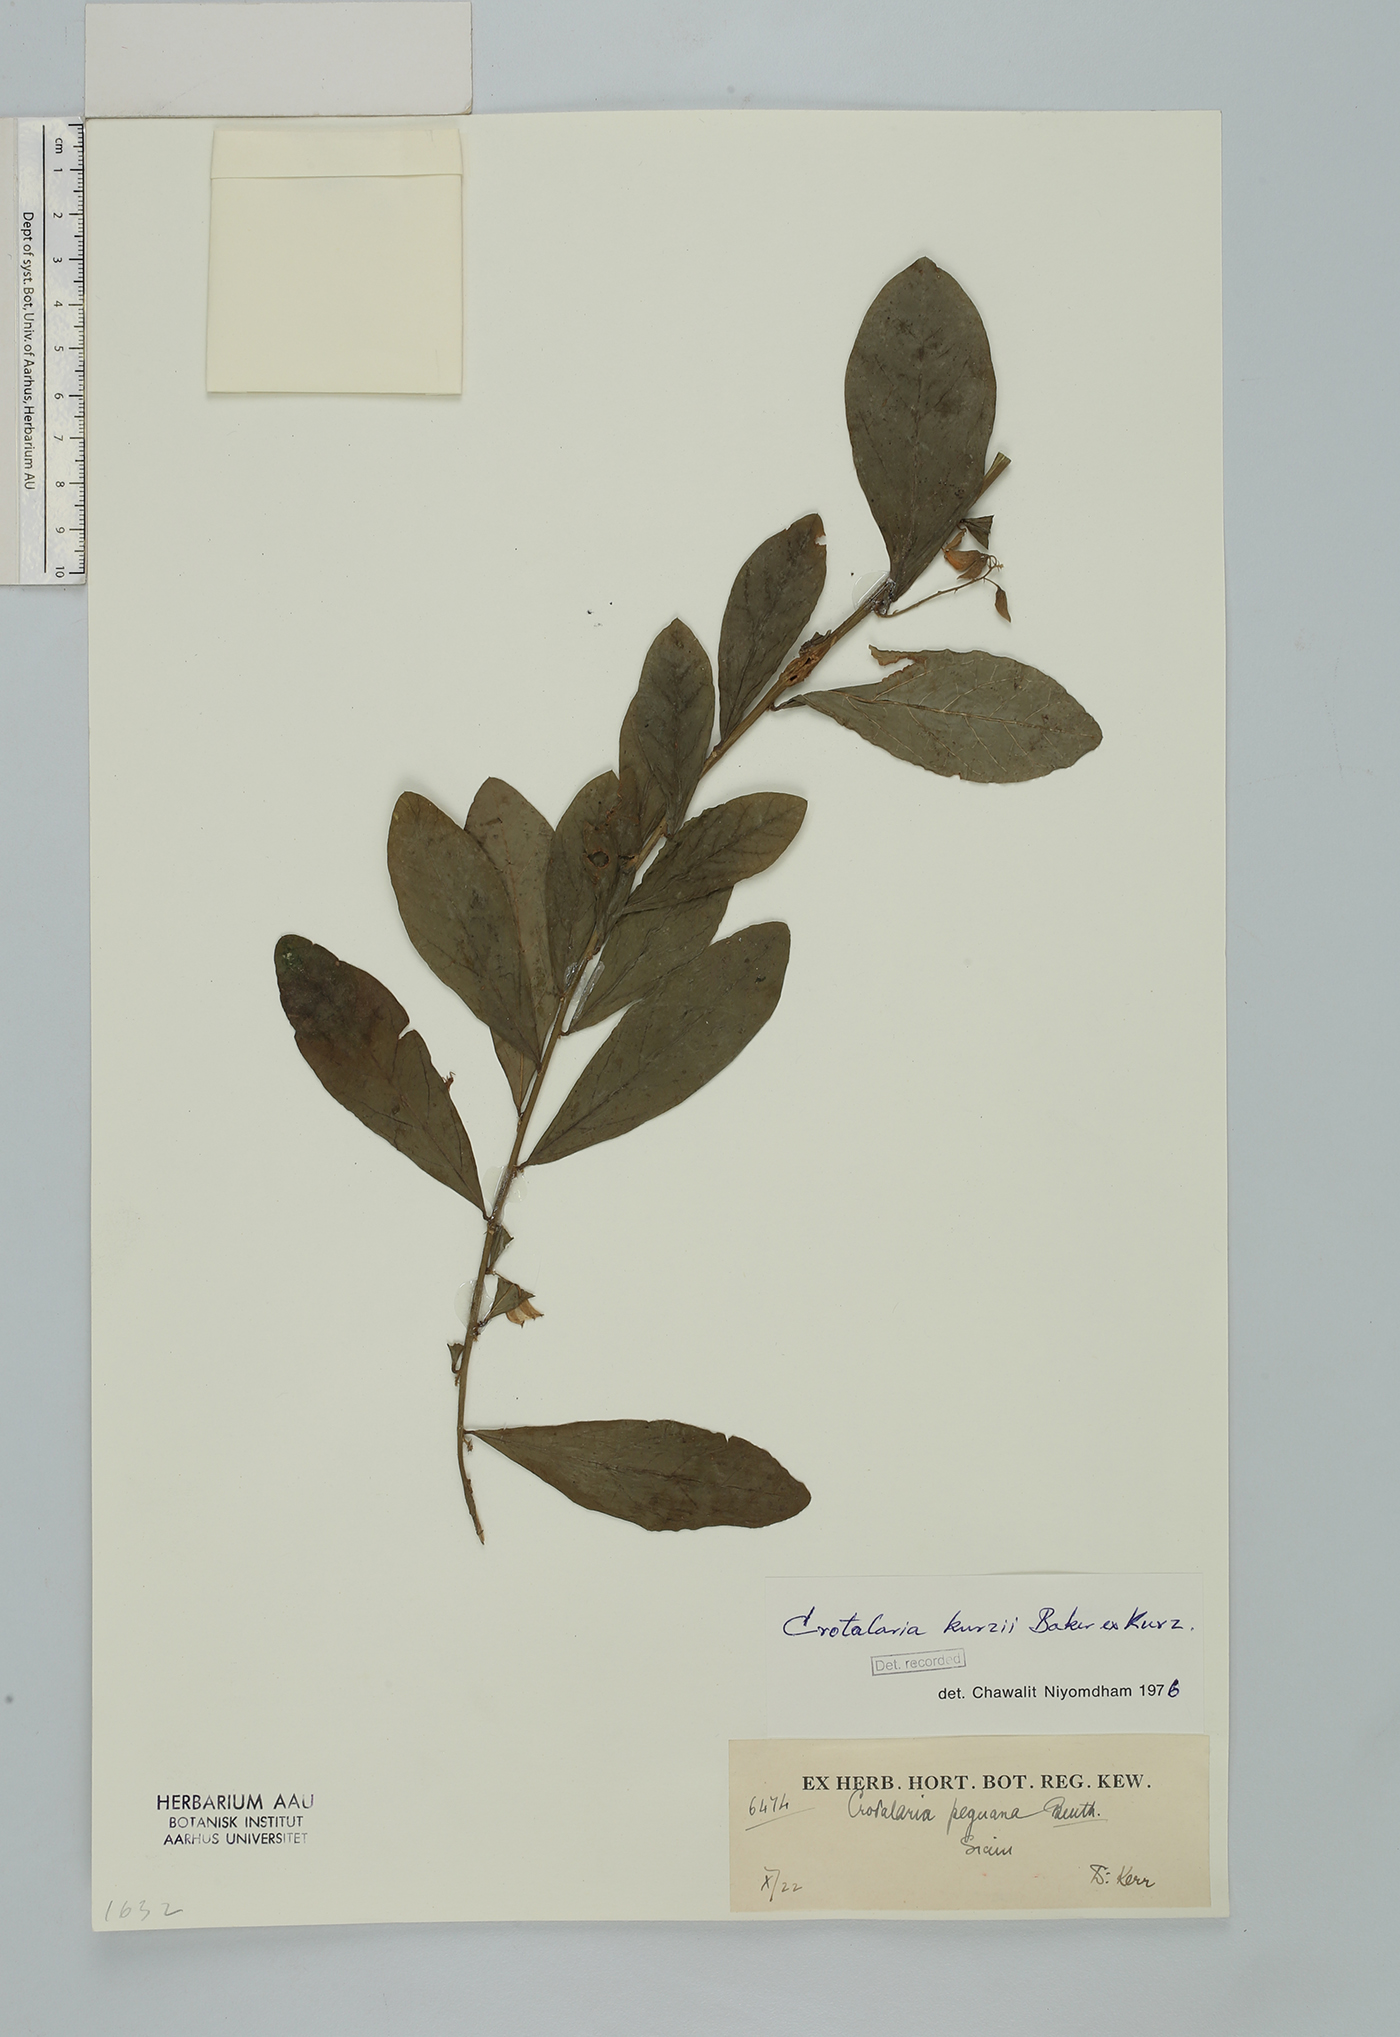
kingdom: Plantae
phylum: Tracheophyta
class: Magnoliopsida
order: Fabales
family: Fabaceae
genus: Crotalaria
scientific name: Crotalaria kurzii
